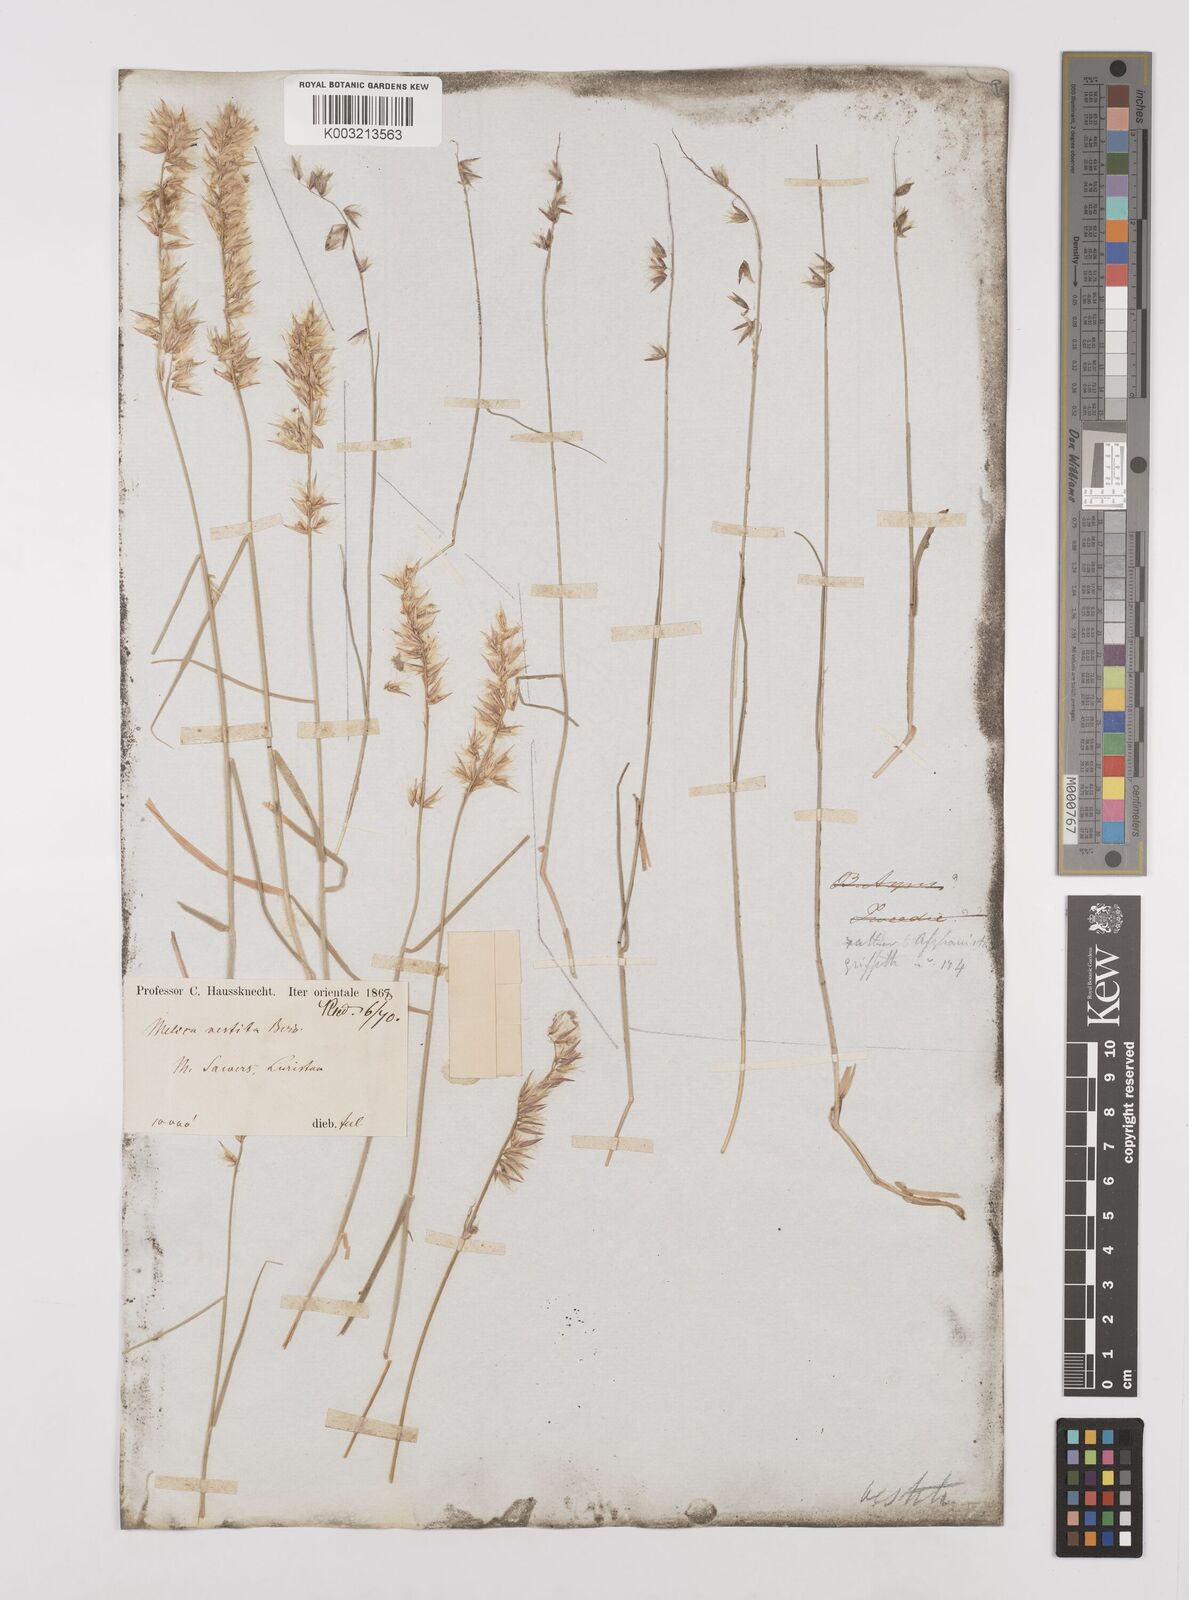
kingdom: Plantae
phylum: Tracheophyta
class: Liliopsida
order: Poales
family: Poaceae
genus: Melica
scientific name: Melica persica
